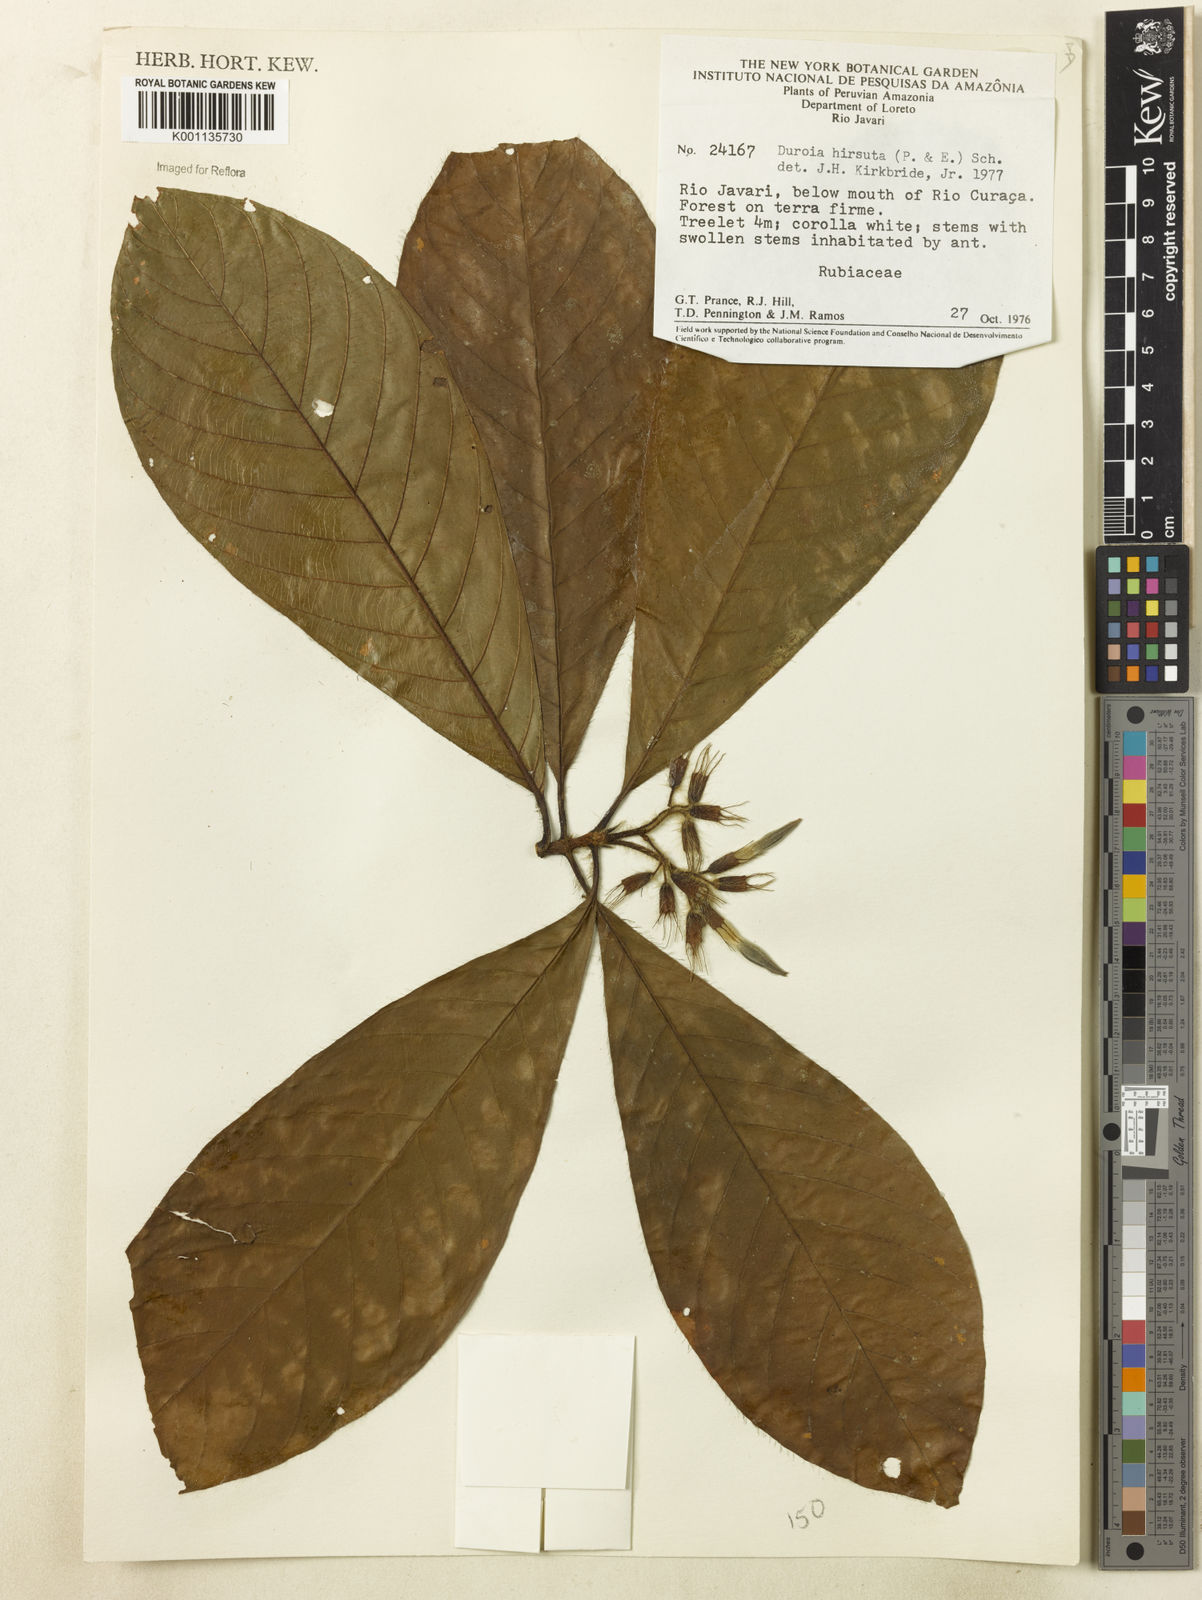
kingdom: Plantae
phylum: Tracheophyta
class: Magnoliopsida
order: Gentianales
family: Rubiaceae
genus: Duroia
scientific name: Duroia hirsuta
